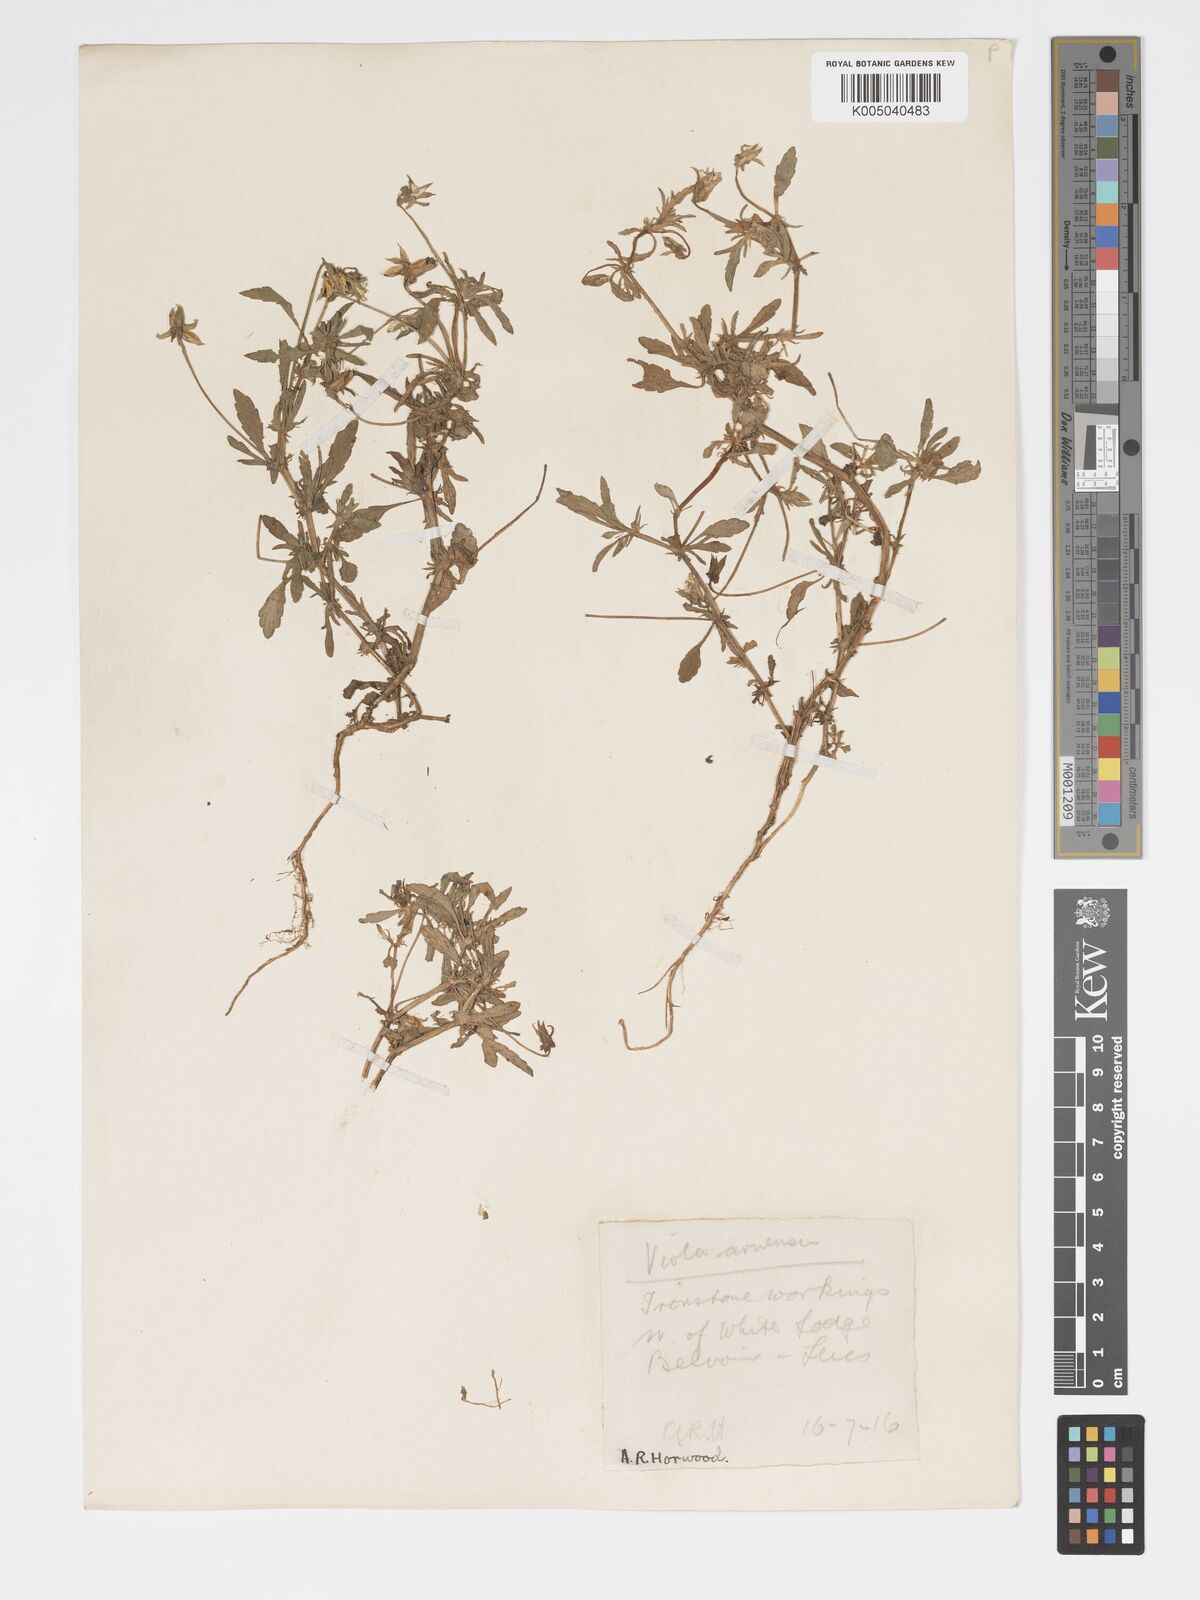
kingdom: Plantae
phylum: Tracheophyta
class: Magnoliopsida
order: Malpighiales
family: Violaceae
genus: Viola
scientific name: Viola arvensis
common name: Field pansy
